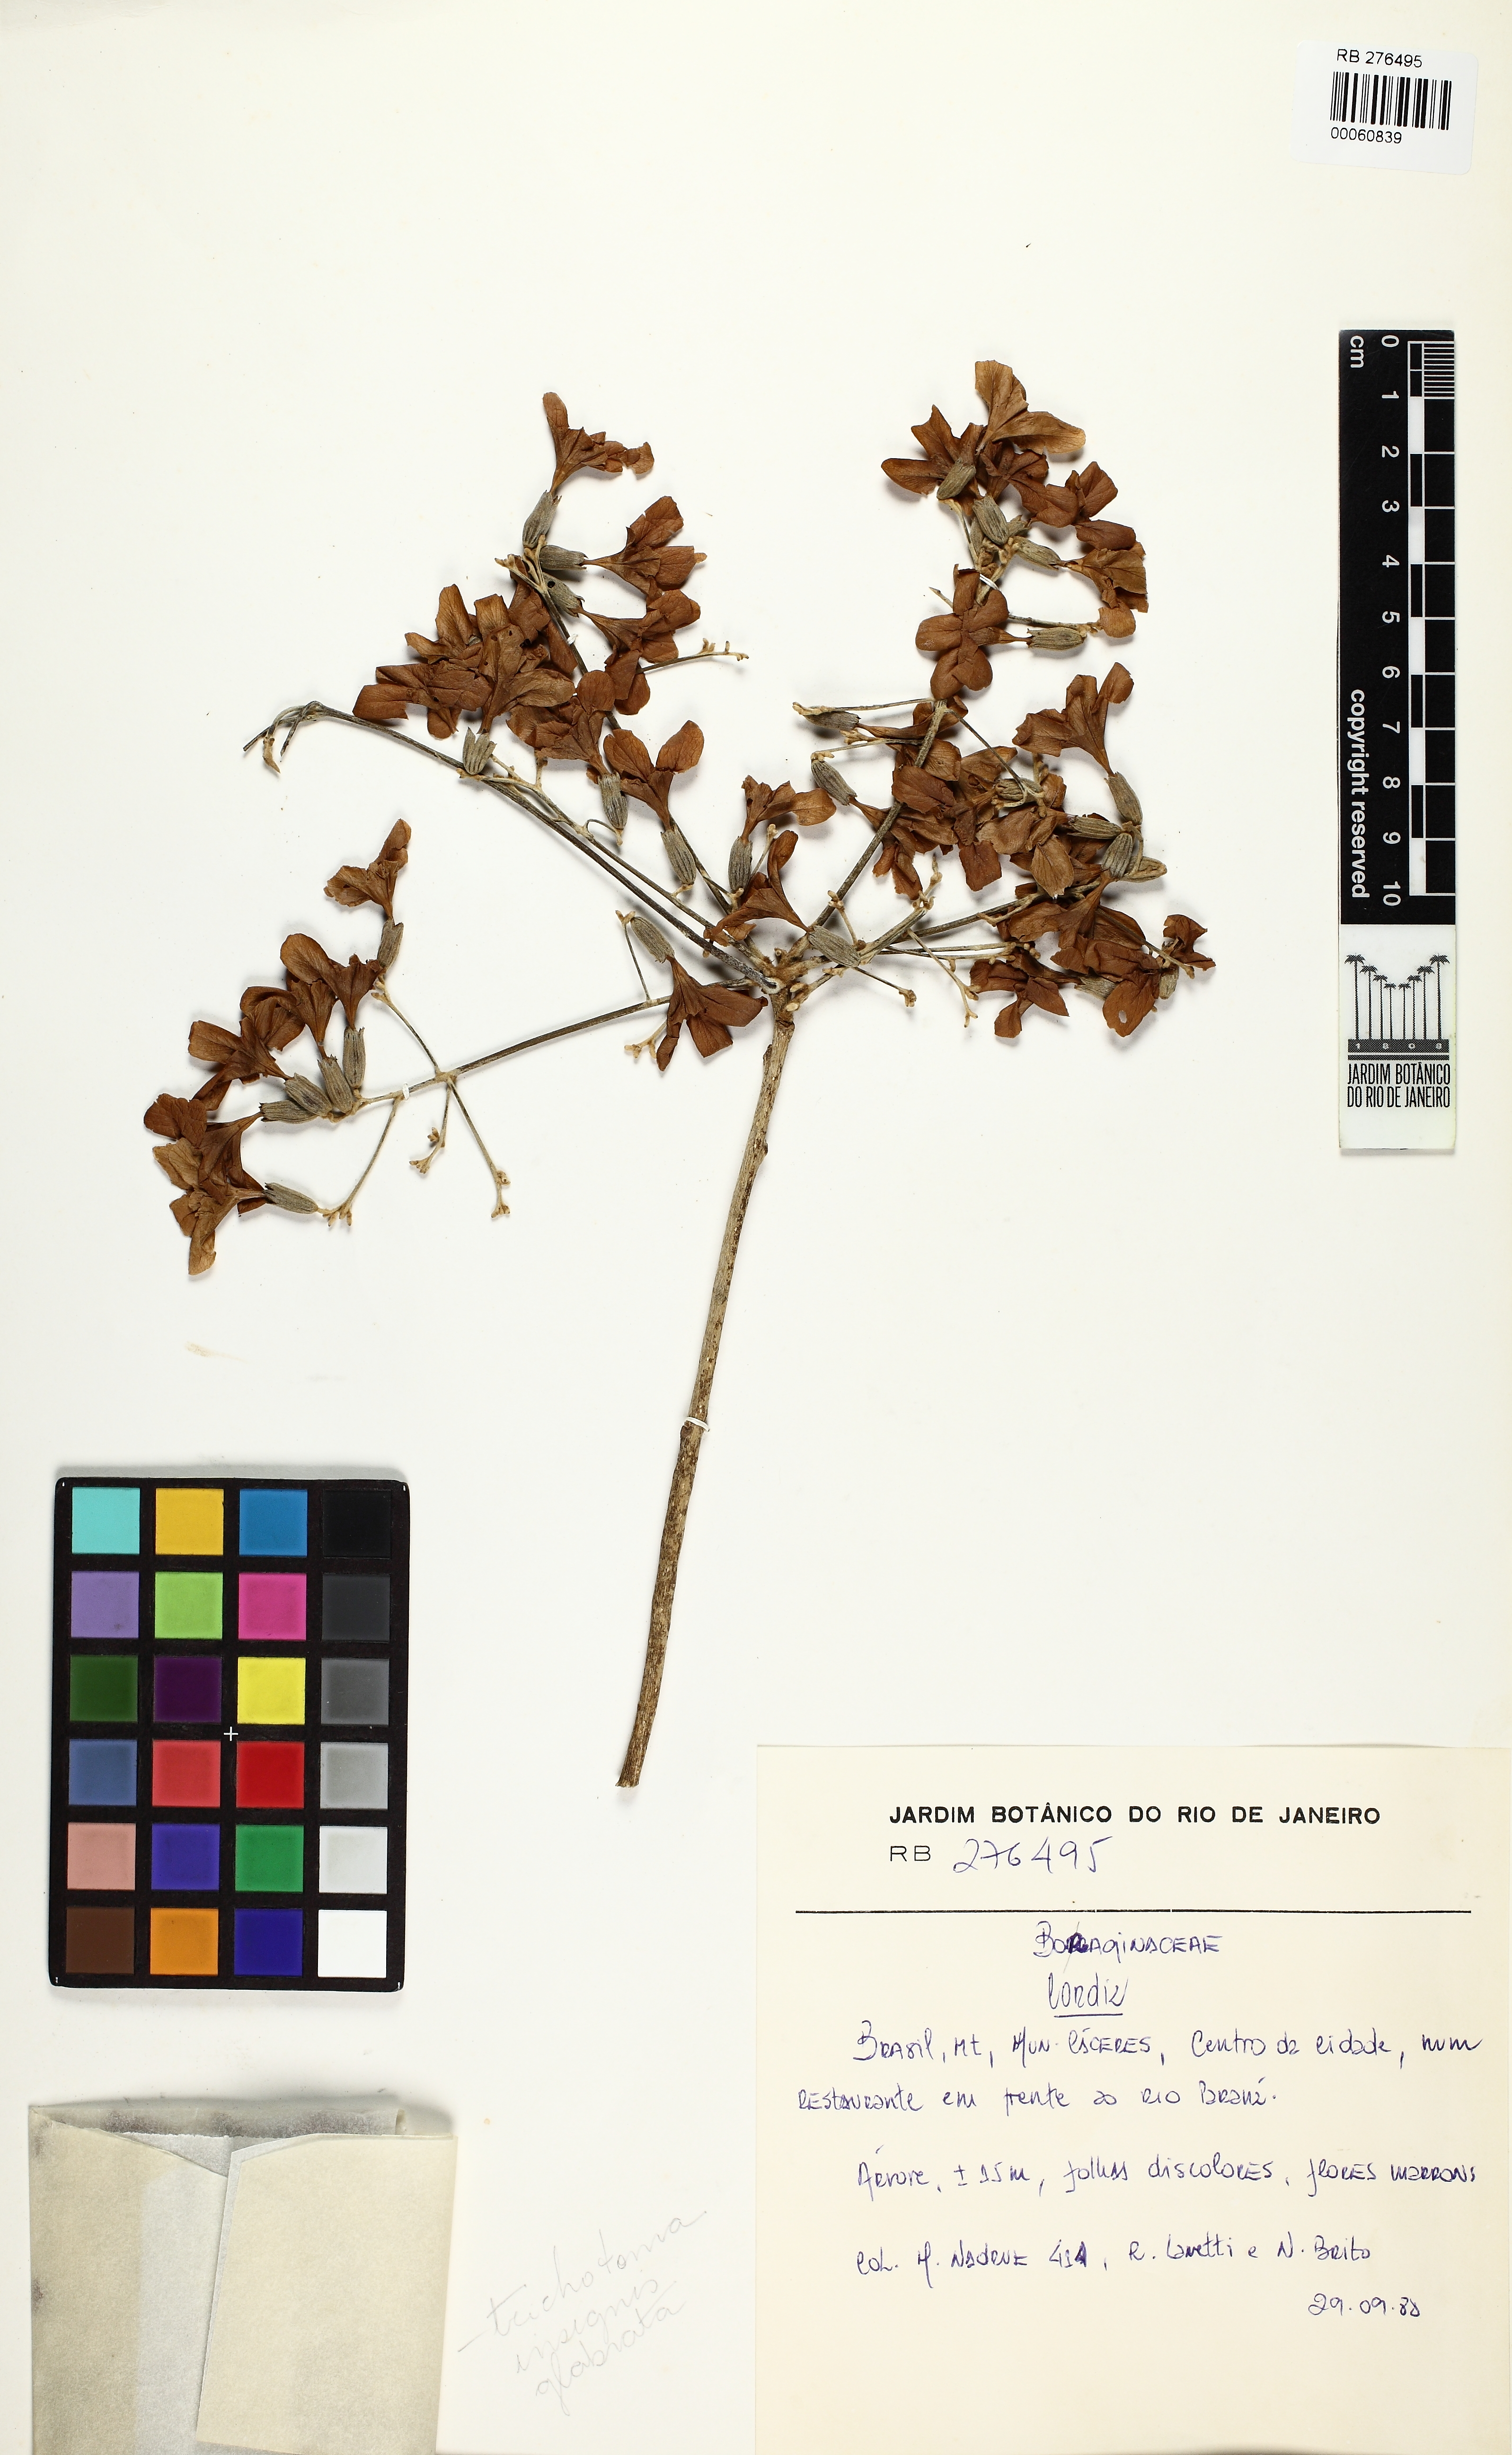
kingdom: Plantae
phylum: Tracheophyta
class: Magnoliopsida
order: Boraginales
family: Cordiaceae
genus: Cordia
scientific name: Cordia
